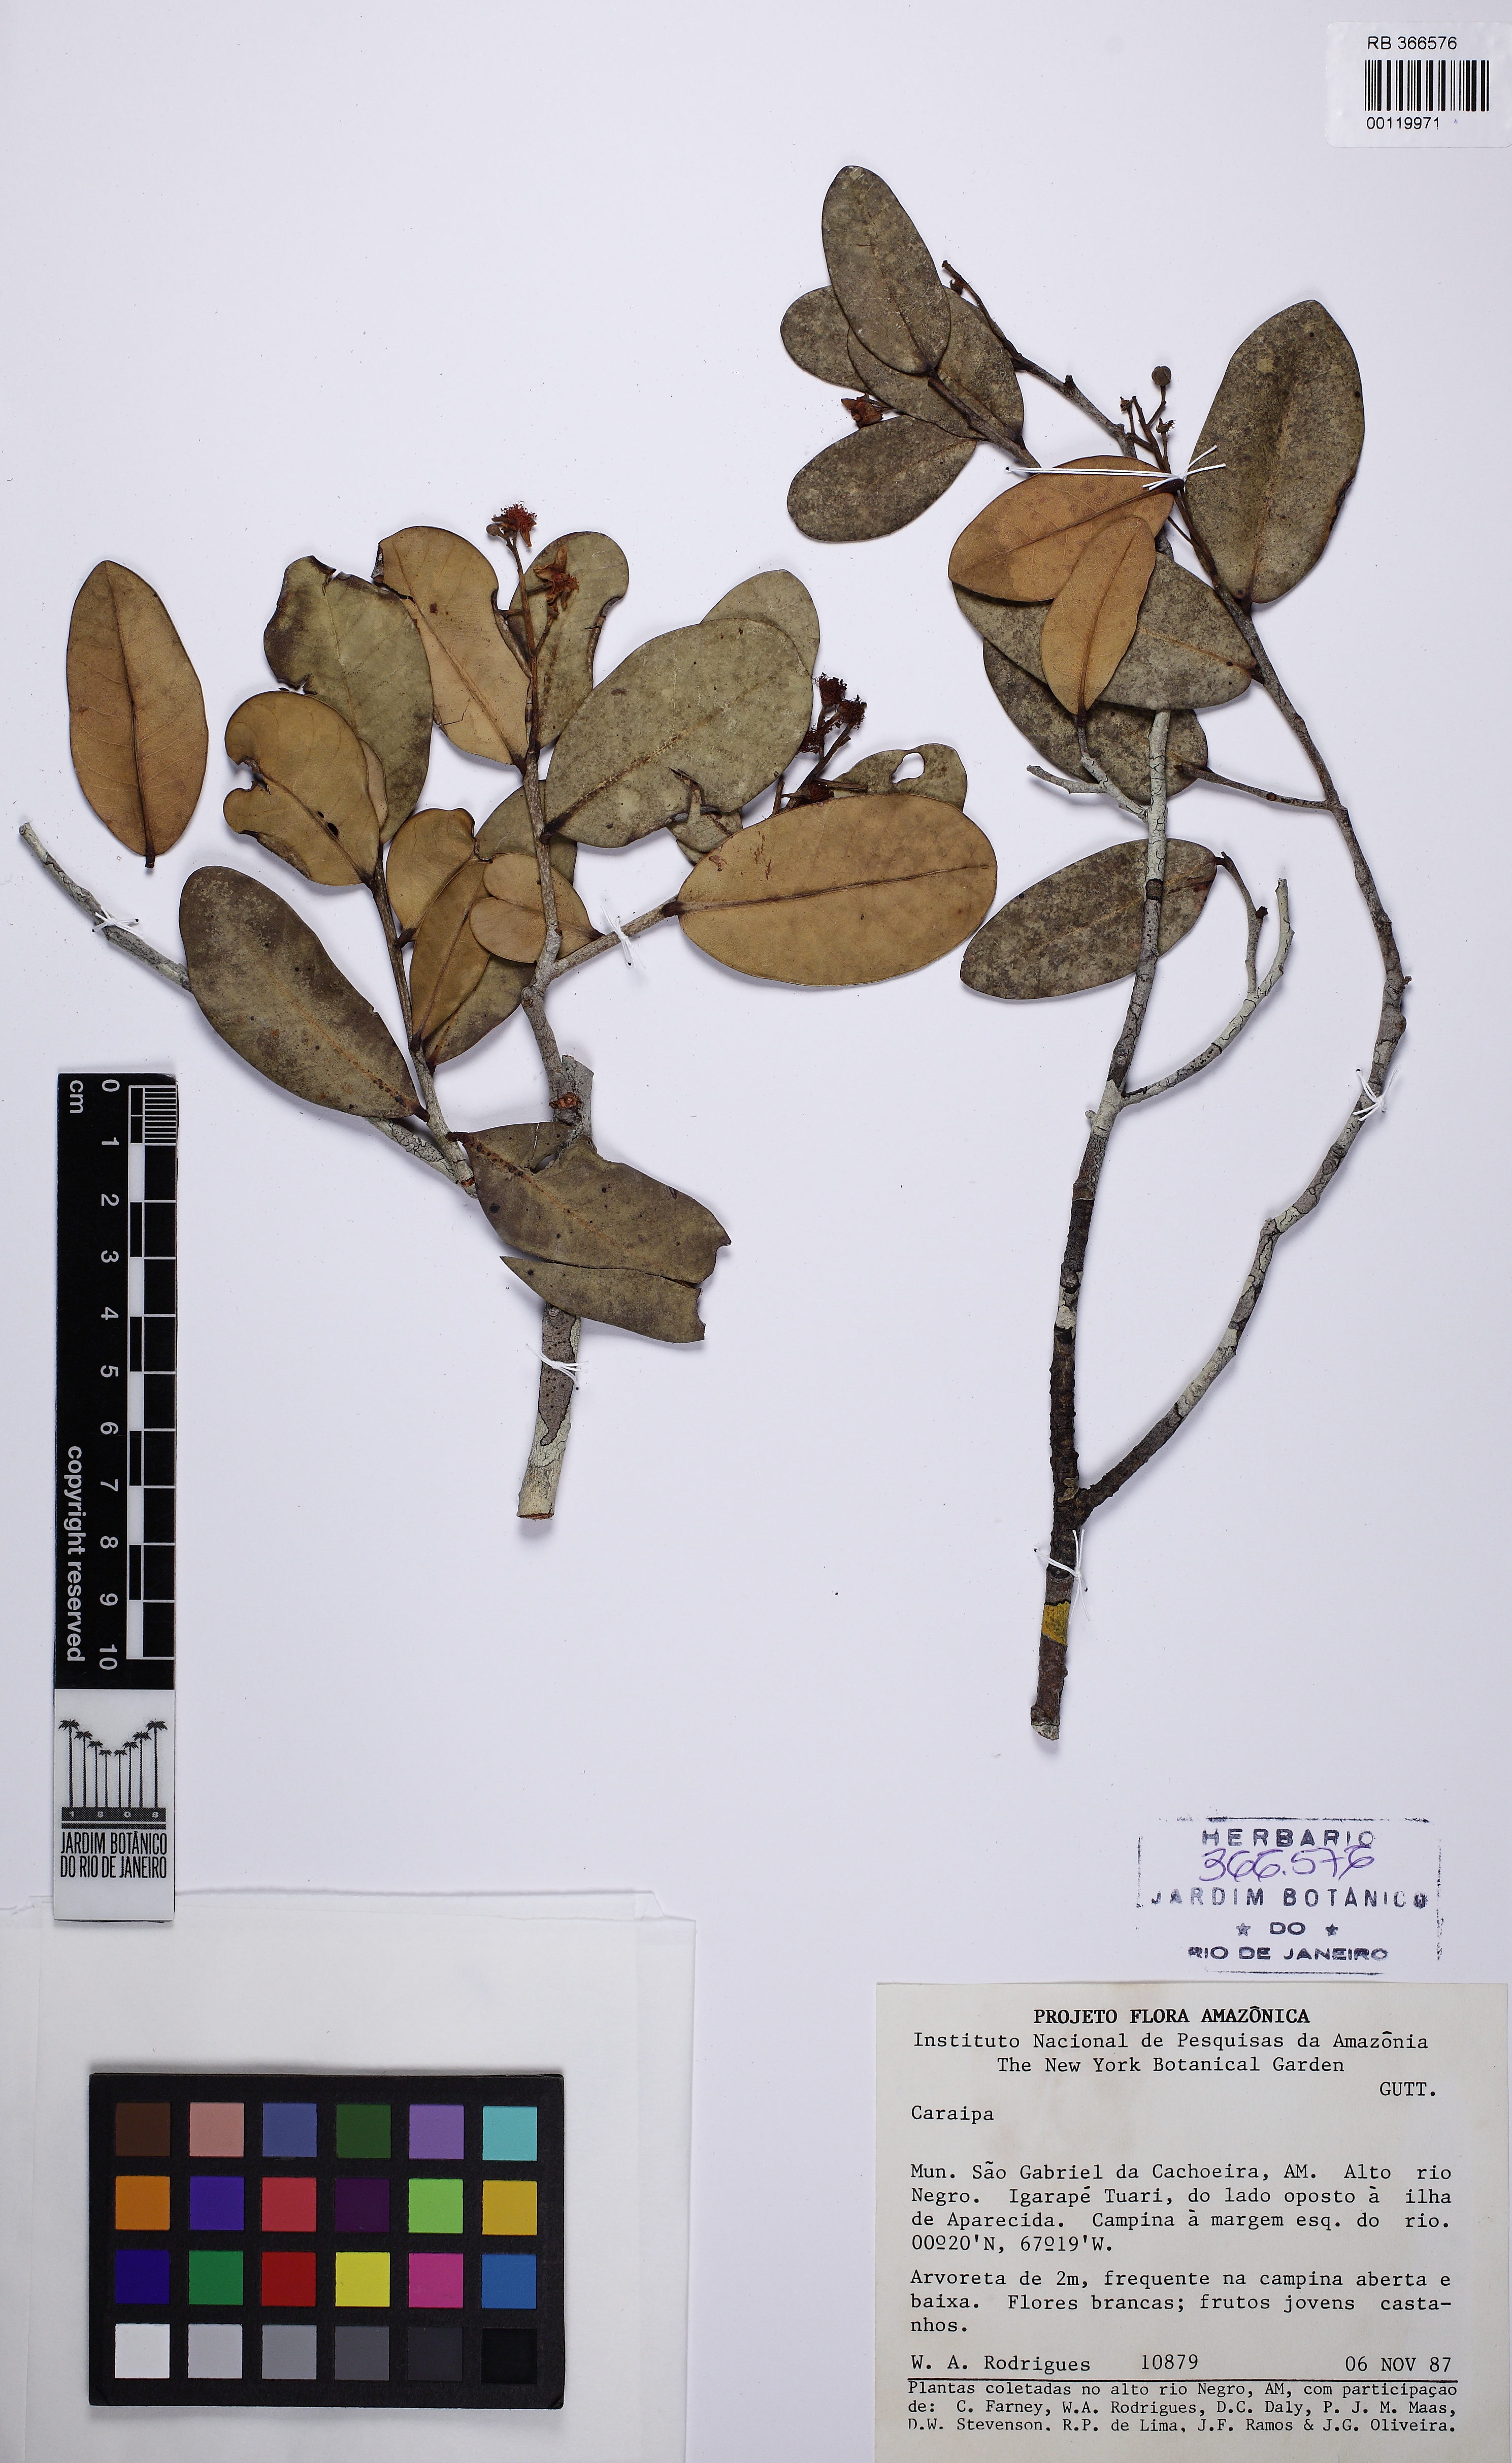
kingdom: Plantae
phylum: Tracheophyta
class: Magnoliopsida
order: Malpighiales
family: Calophyllaceae
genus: Caraipa
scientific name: Caraipa llanorum
